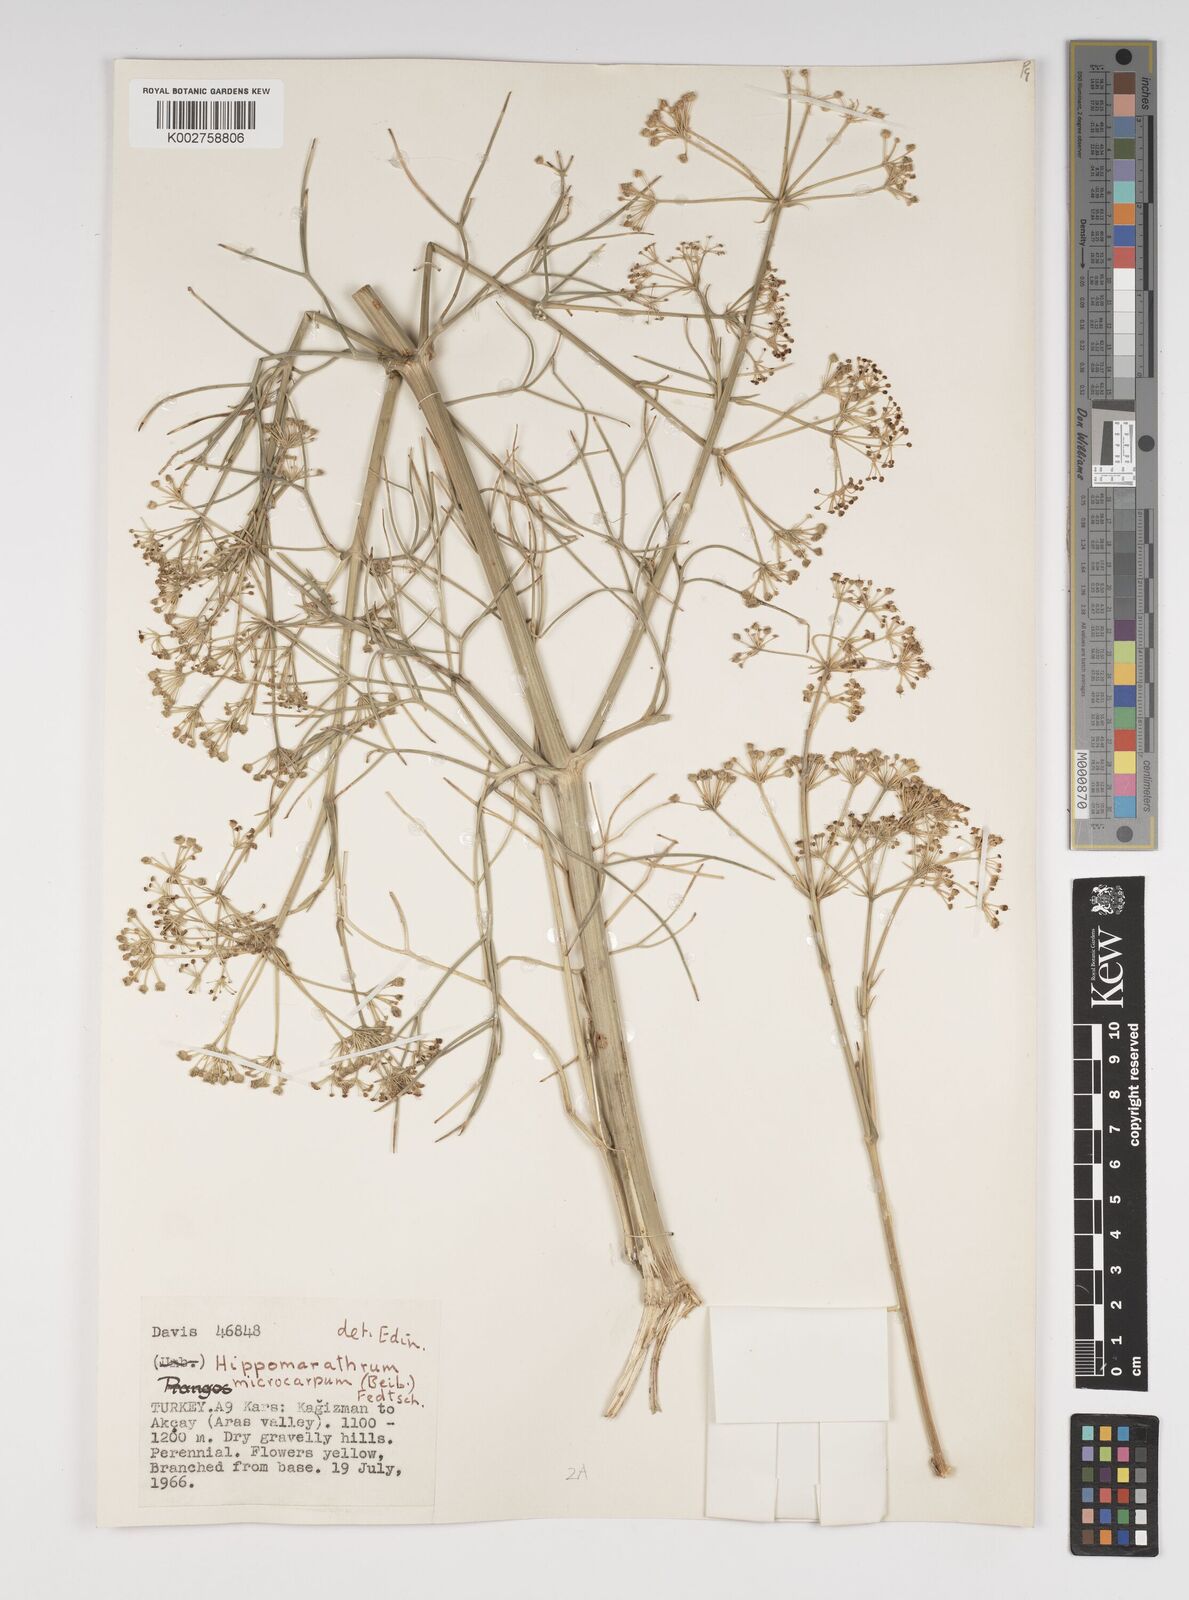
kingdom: Plantae
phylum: Tracheophyta
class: Magnoliopsida
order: Apiales
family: Apiaceae
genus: Bilacunaria
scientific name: Bilacunaria microcarpa
